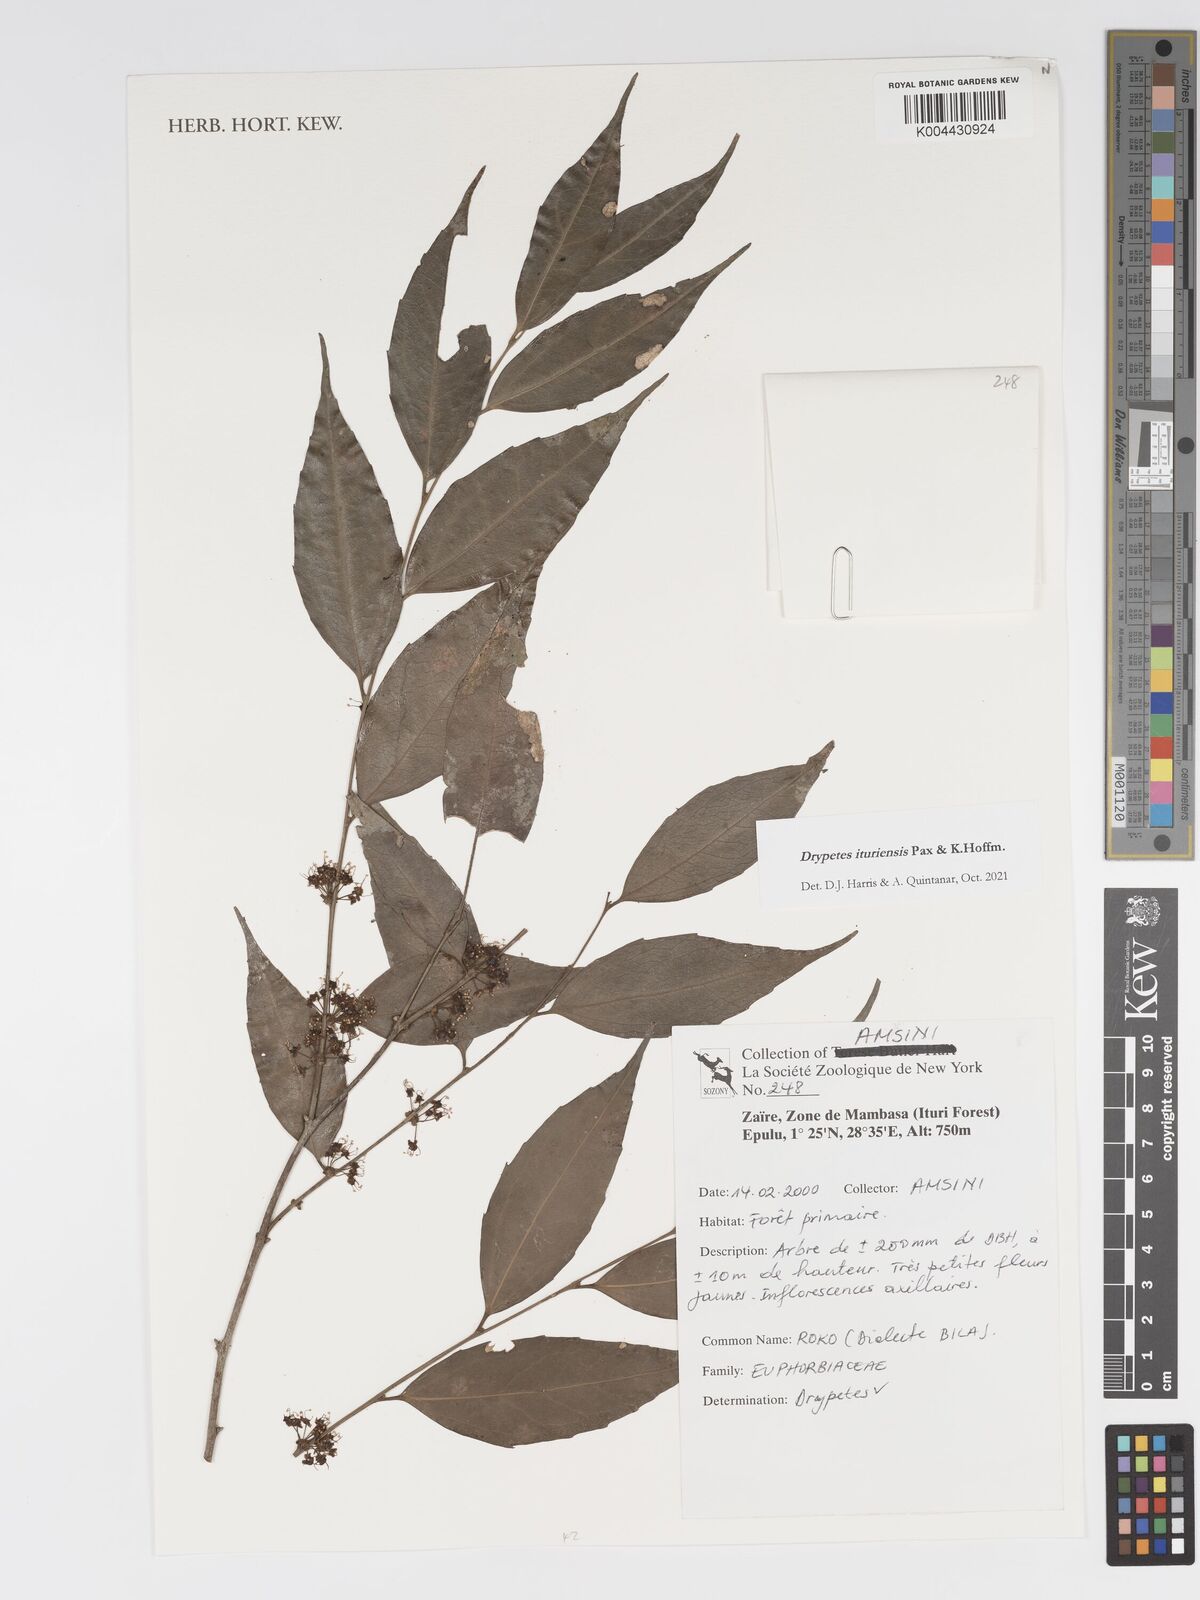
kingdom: Plantae
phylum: Tracheophyta
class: Magnoliopsida
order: Malpighiales
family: Putranjivaceae
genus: Drypetes
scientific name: Drypetes ituriensis
